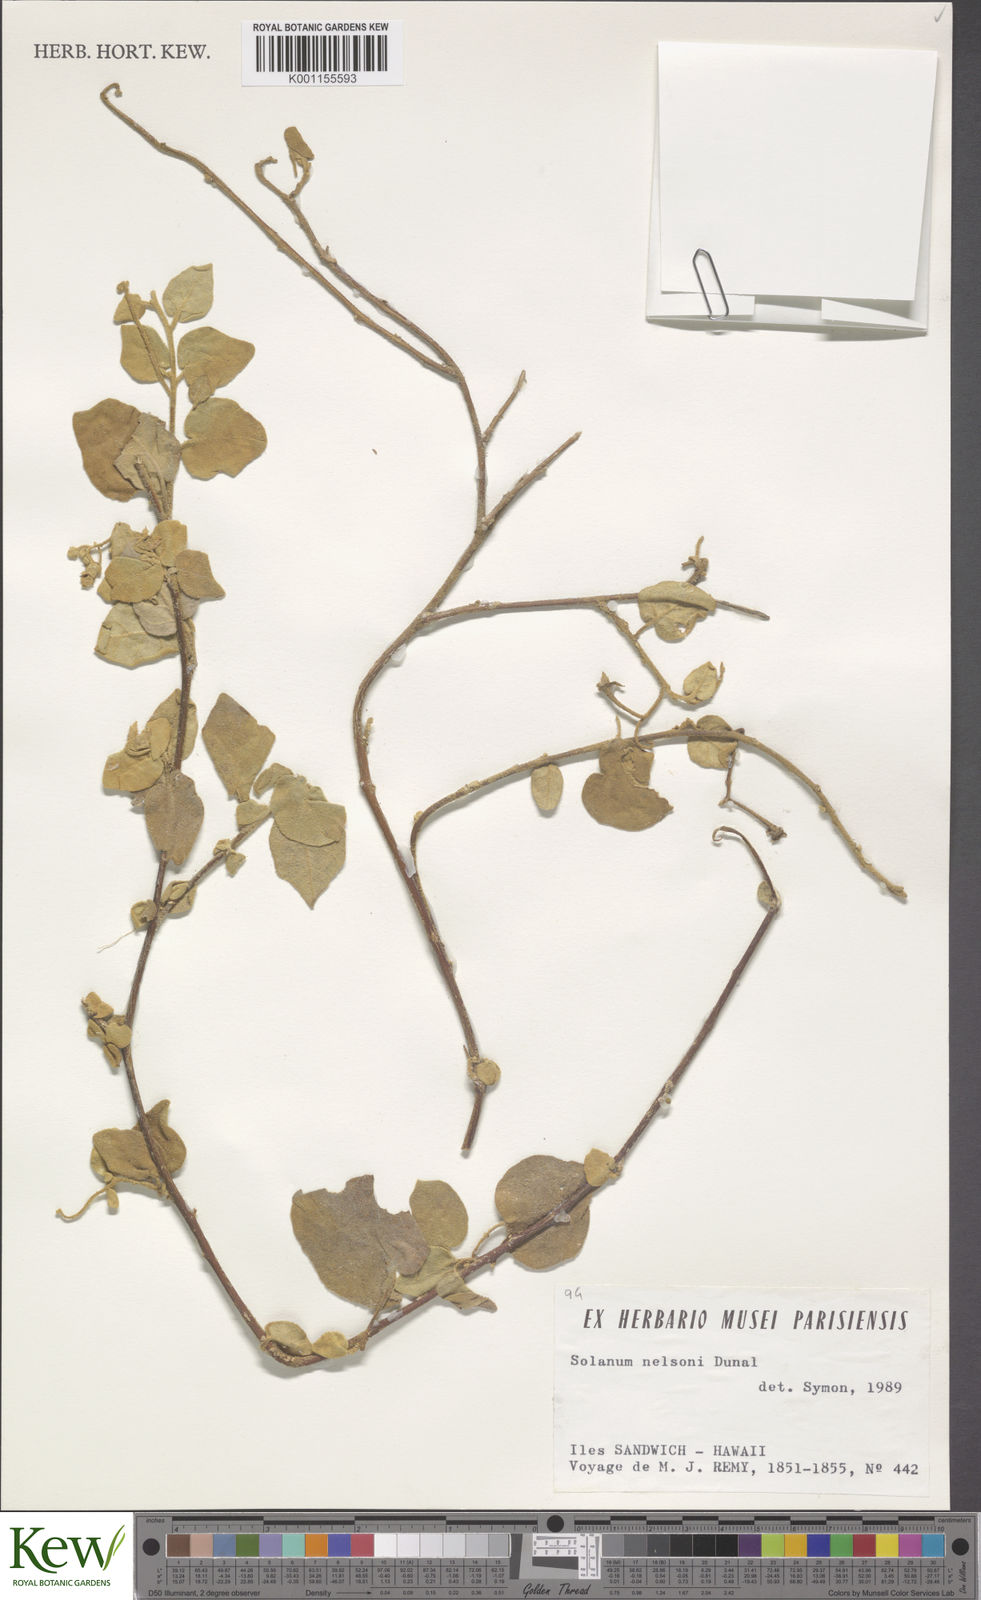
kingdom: Plantae
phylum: Tracheophyta
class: Magnoliopsida
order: Solanales
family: Solanaceae
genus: Solanum
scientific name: Solanum nigrum
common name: Black nightshade
